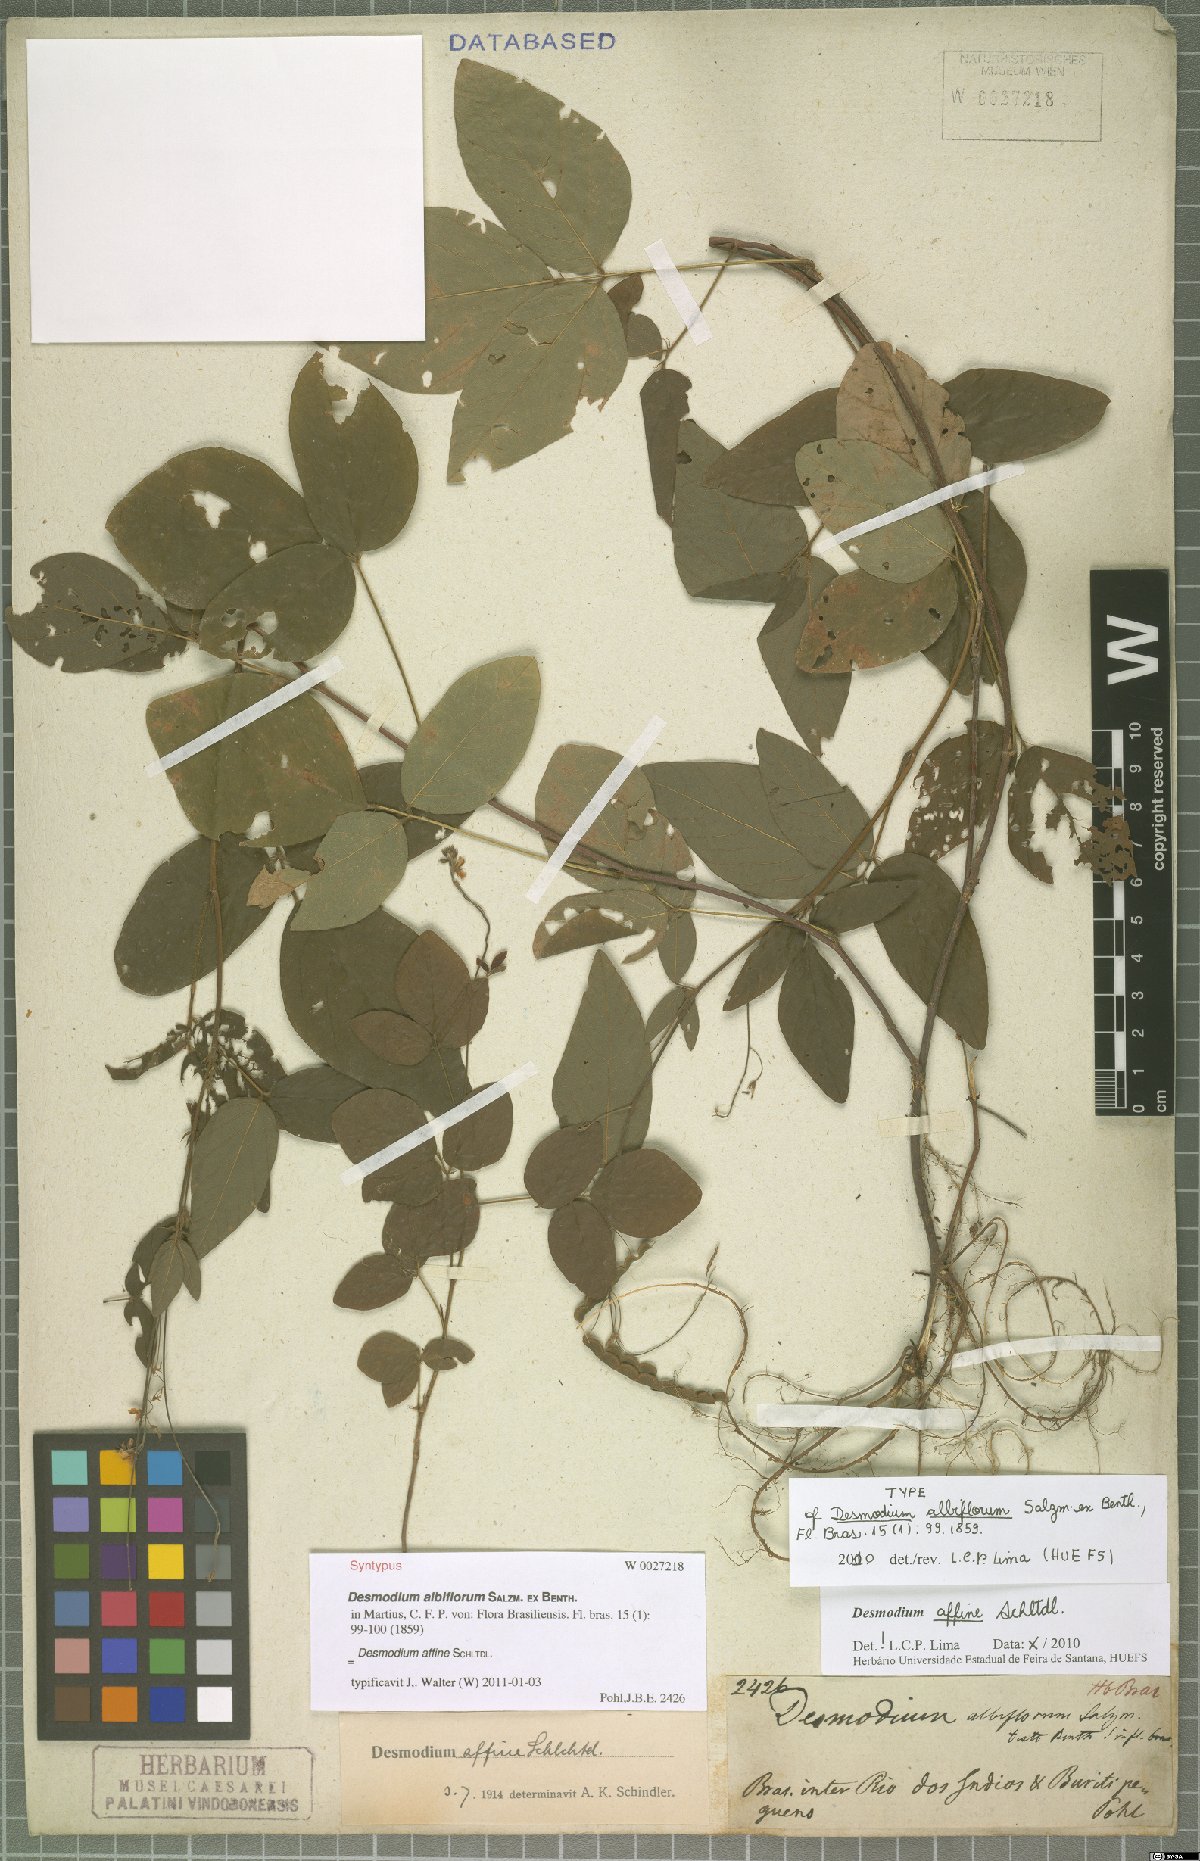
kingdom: Plantae
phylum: Tracheophyta
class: Magnoliopsida
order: Fabales
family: Fabaceae
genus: Desmodium
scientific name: Desmodium affine
